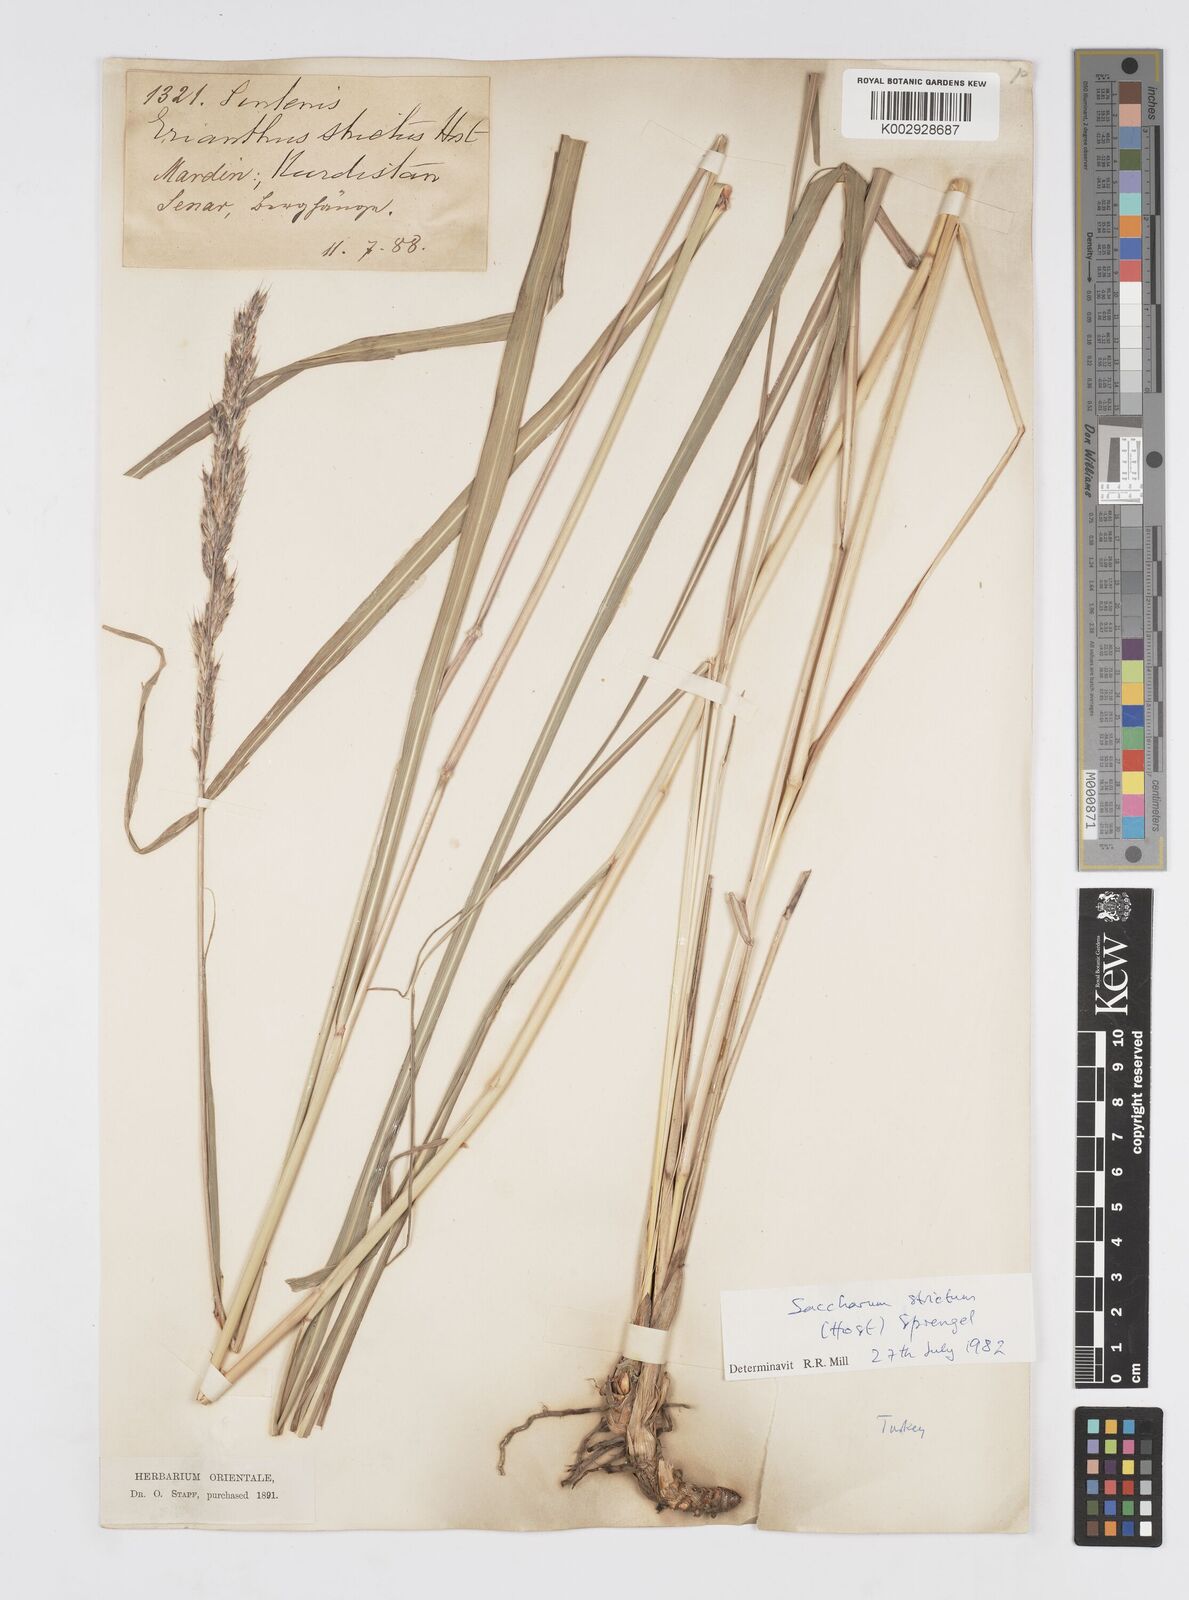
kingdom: Plantae
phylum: Tracheophyta
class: Liliopsida
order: Poales
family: Poaceae
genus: Tripidium
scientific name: Tripidium strictum
